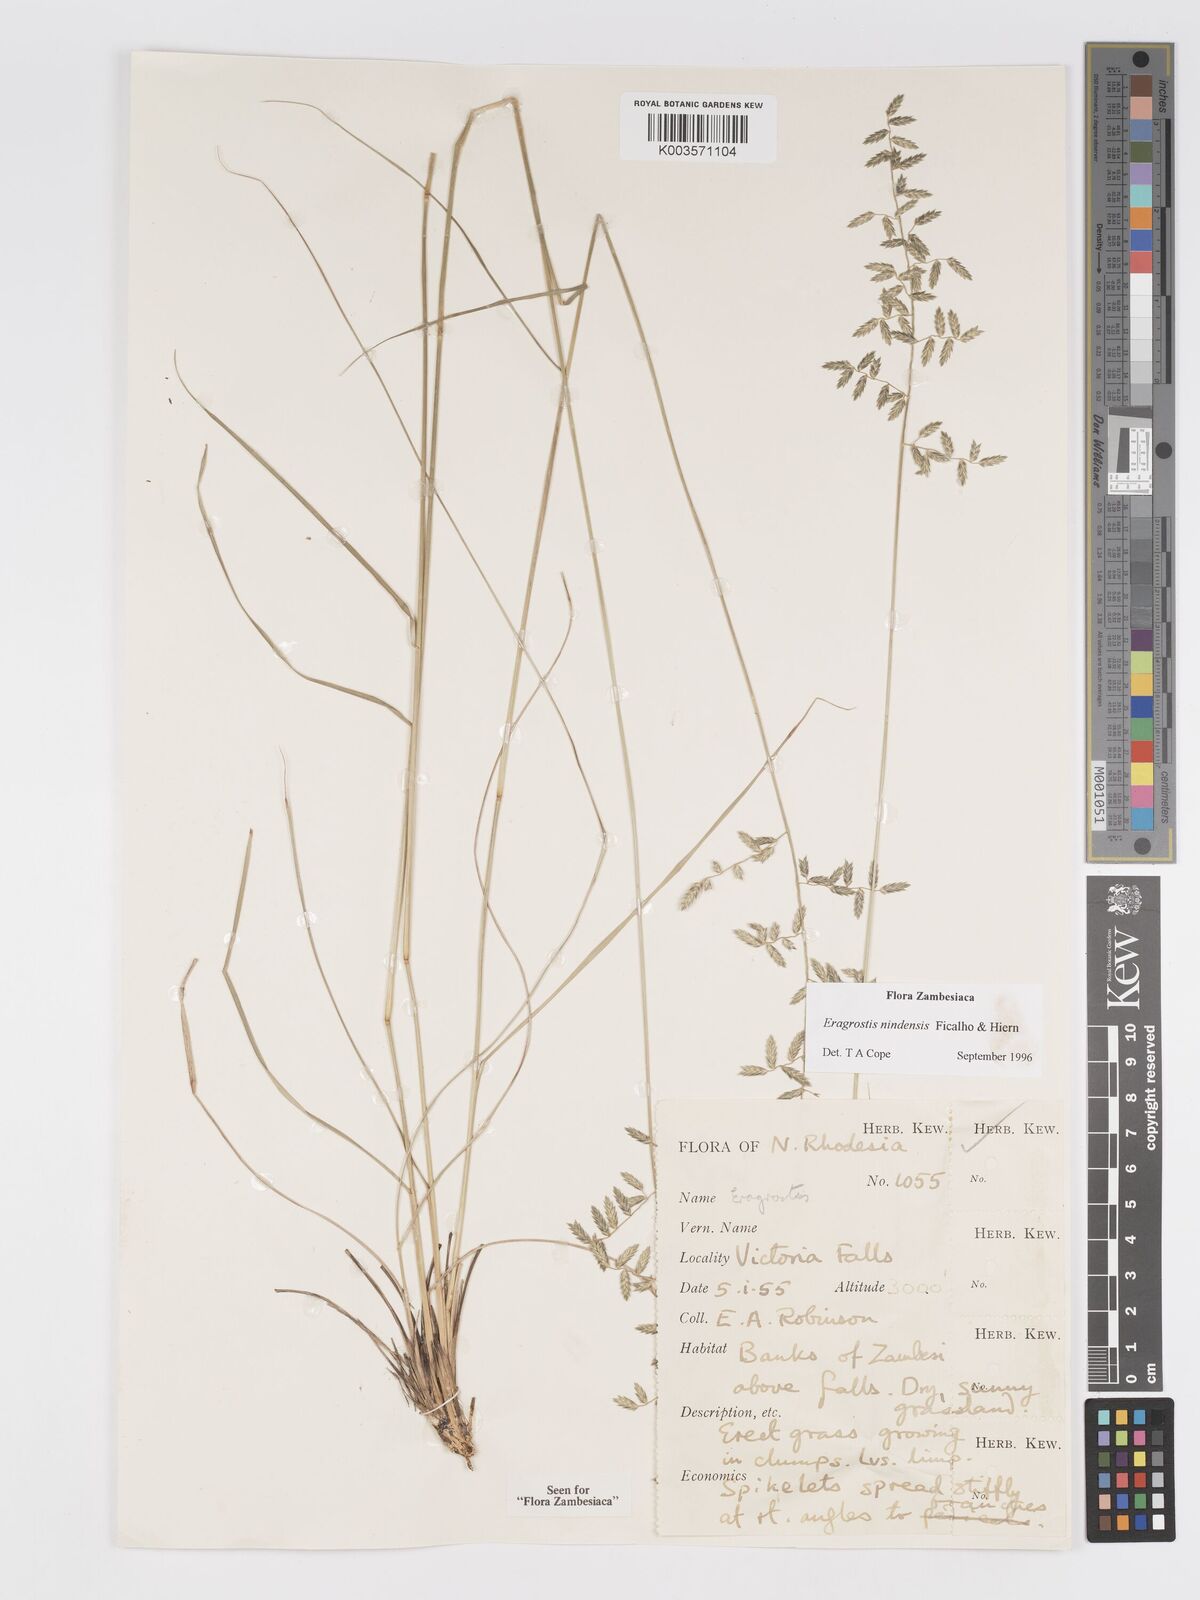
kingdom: Plantae
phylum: Tracheophyta
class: Liliopsida
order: Poales
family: Poaceae
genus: Eragrostis
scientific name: Eragrostis nindensis
